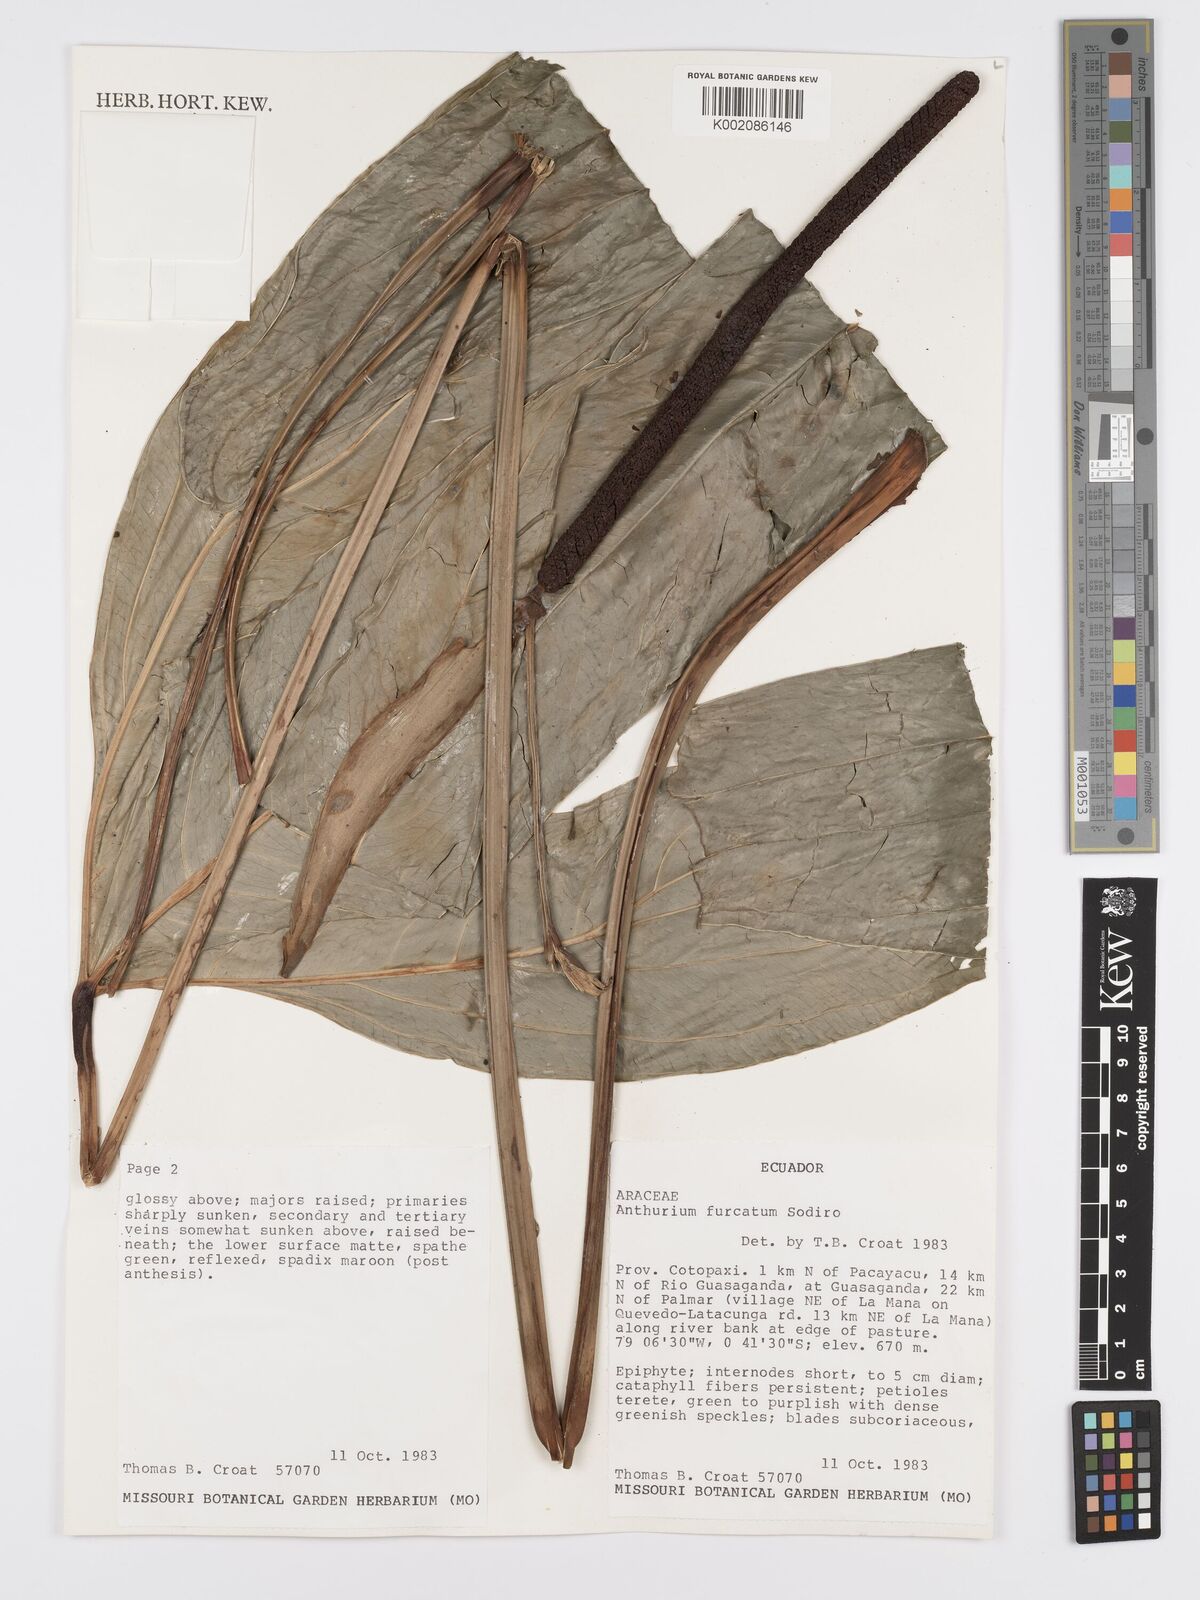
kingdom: Plantae
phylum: Tracheophyta
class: Liliopsida
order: Alismatales
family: Araceae
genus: Anthurium
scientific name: Anthurium furcatum
